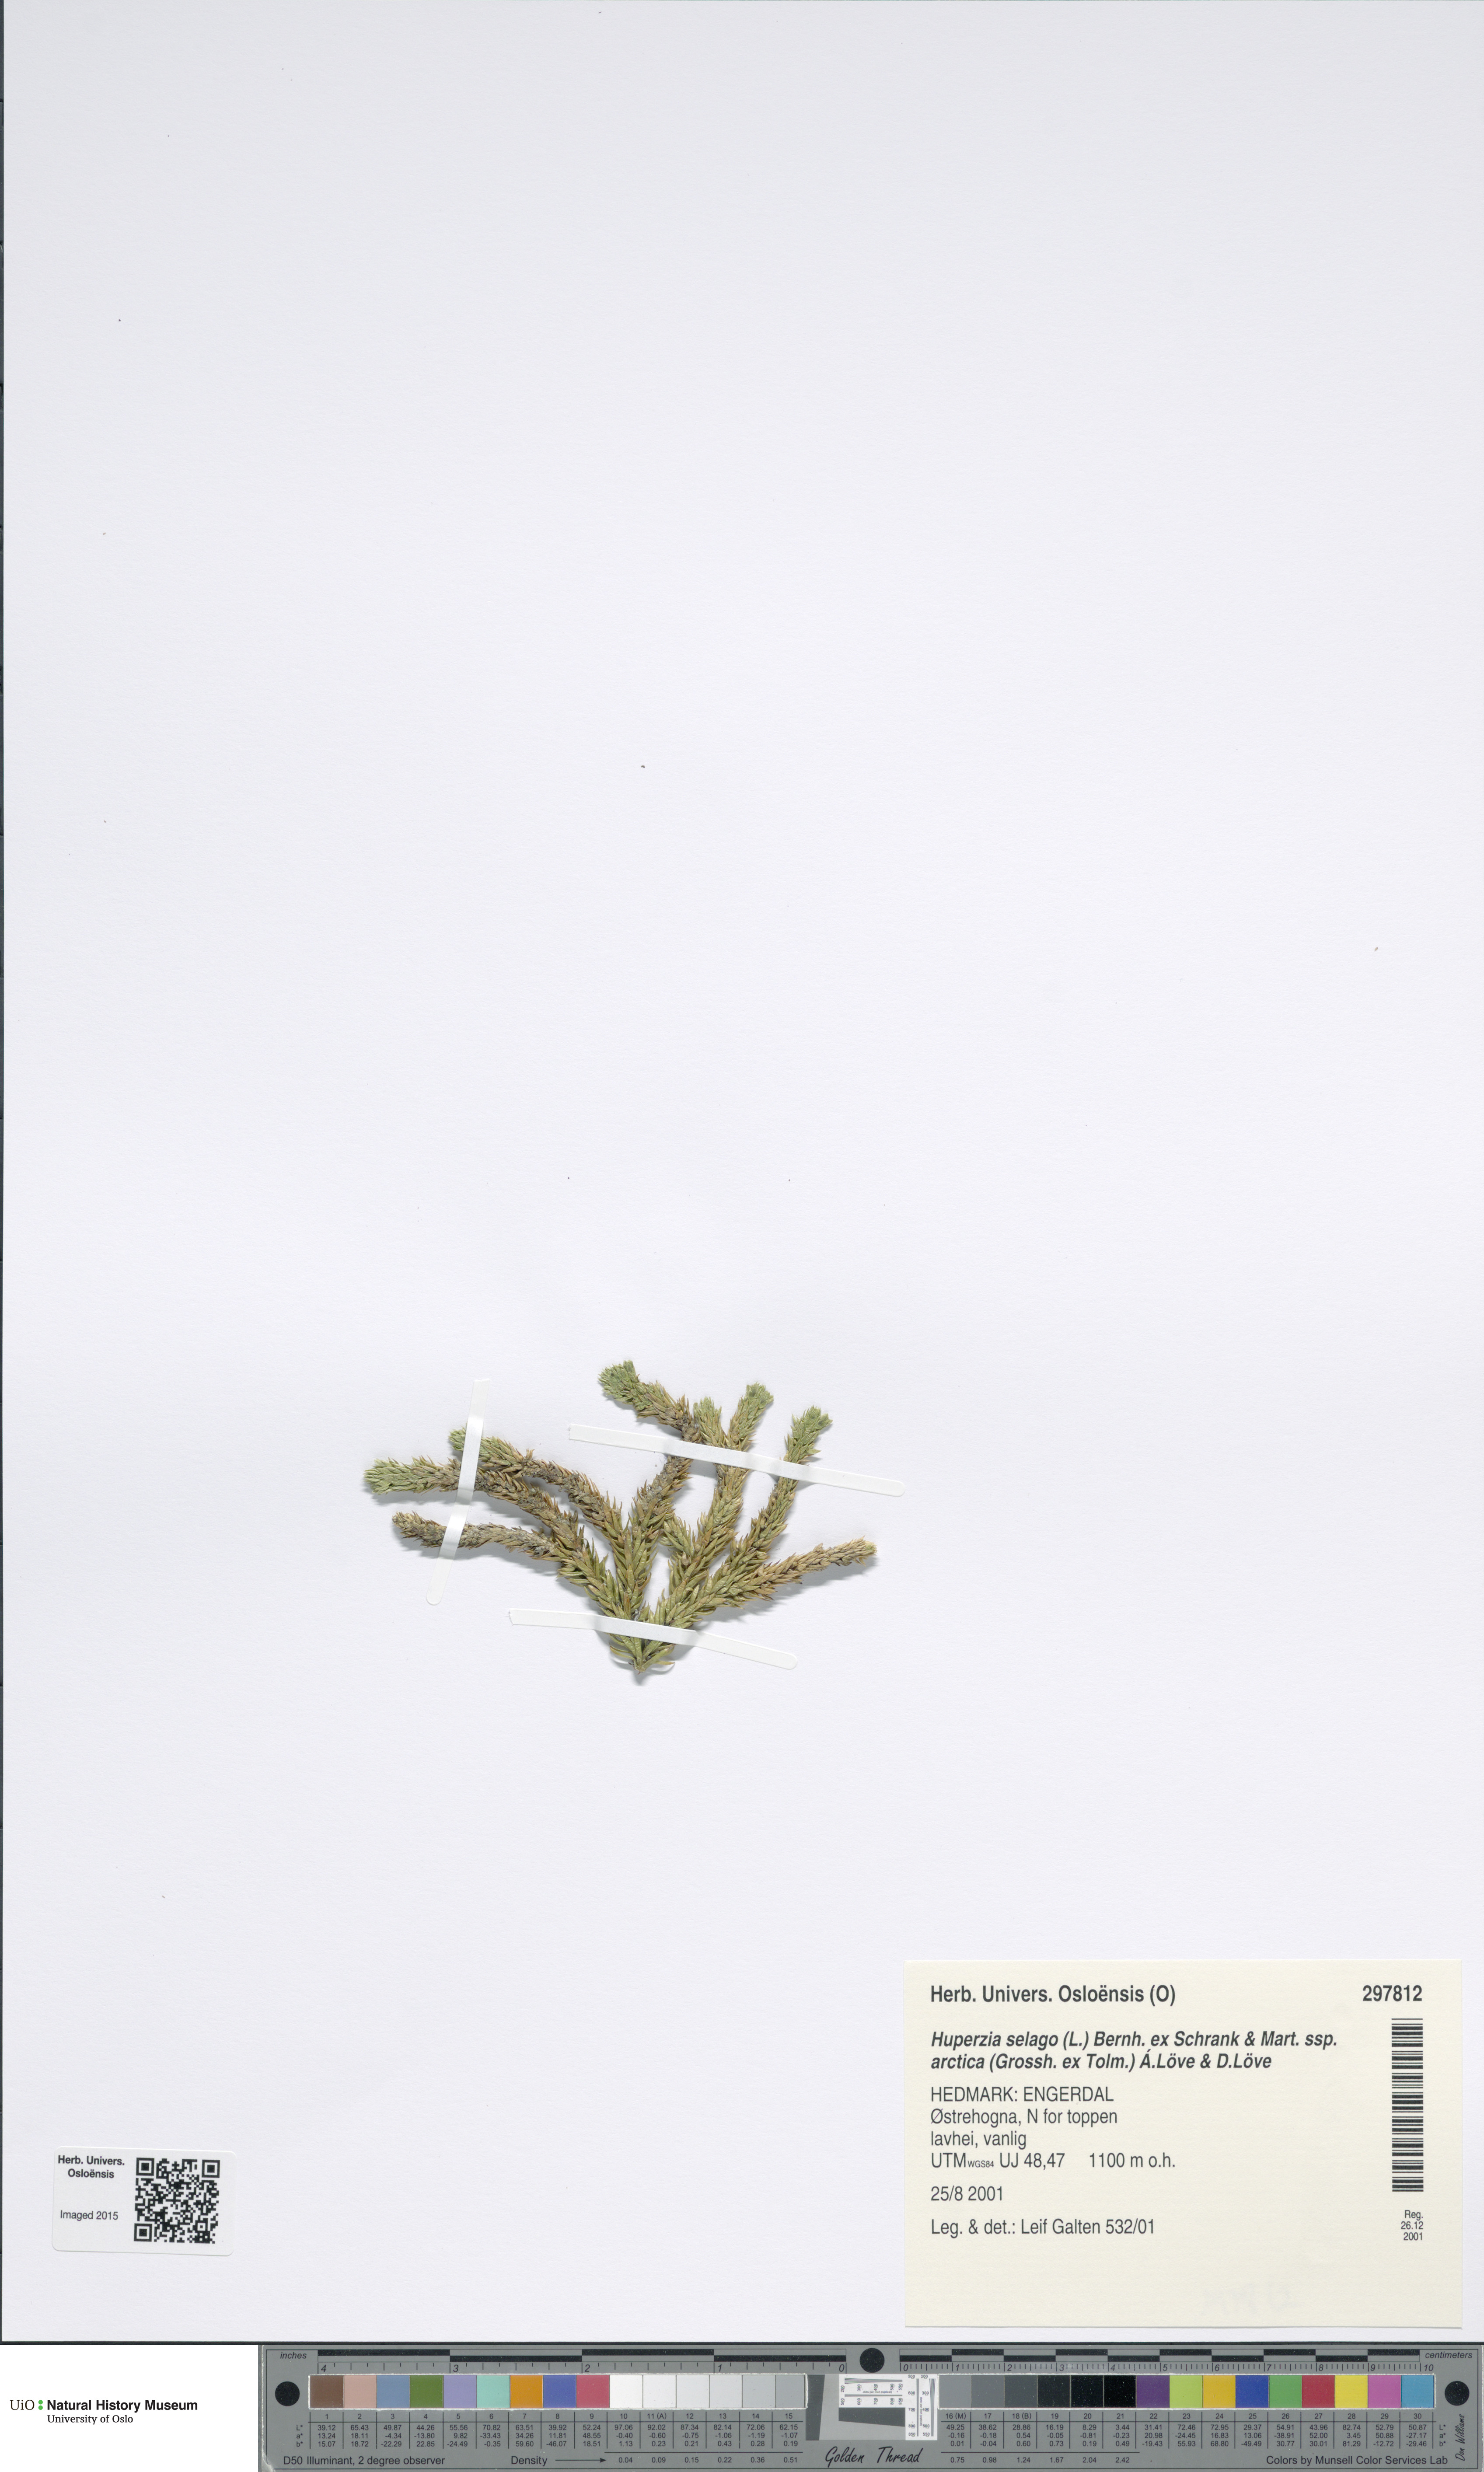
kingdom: Plantae
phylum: Tracheophyta
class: Lycopodiopsida
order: Lycopodiales
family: Lycopodiaceae
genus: Huperzia
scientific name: Huperzia selago
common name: Northern firmoss
